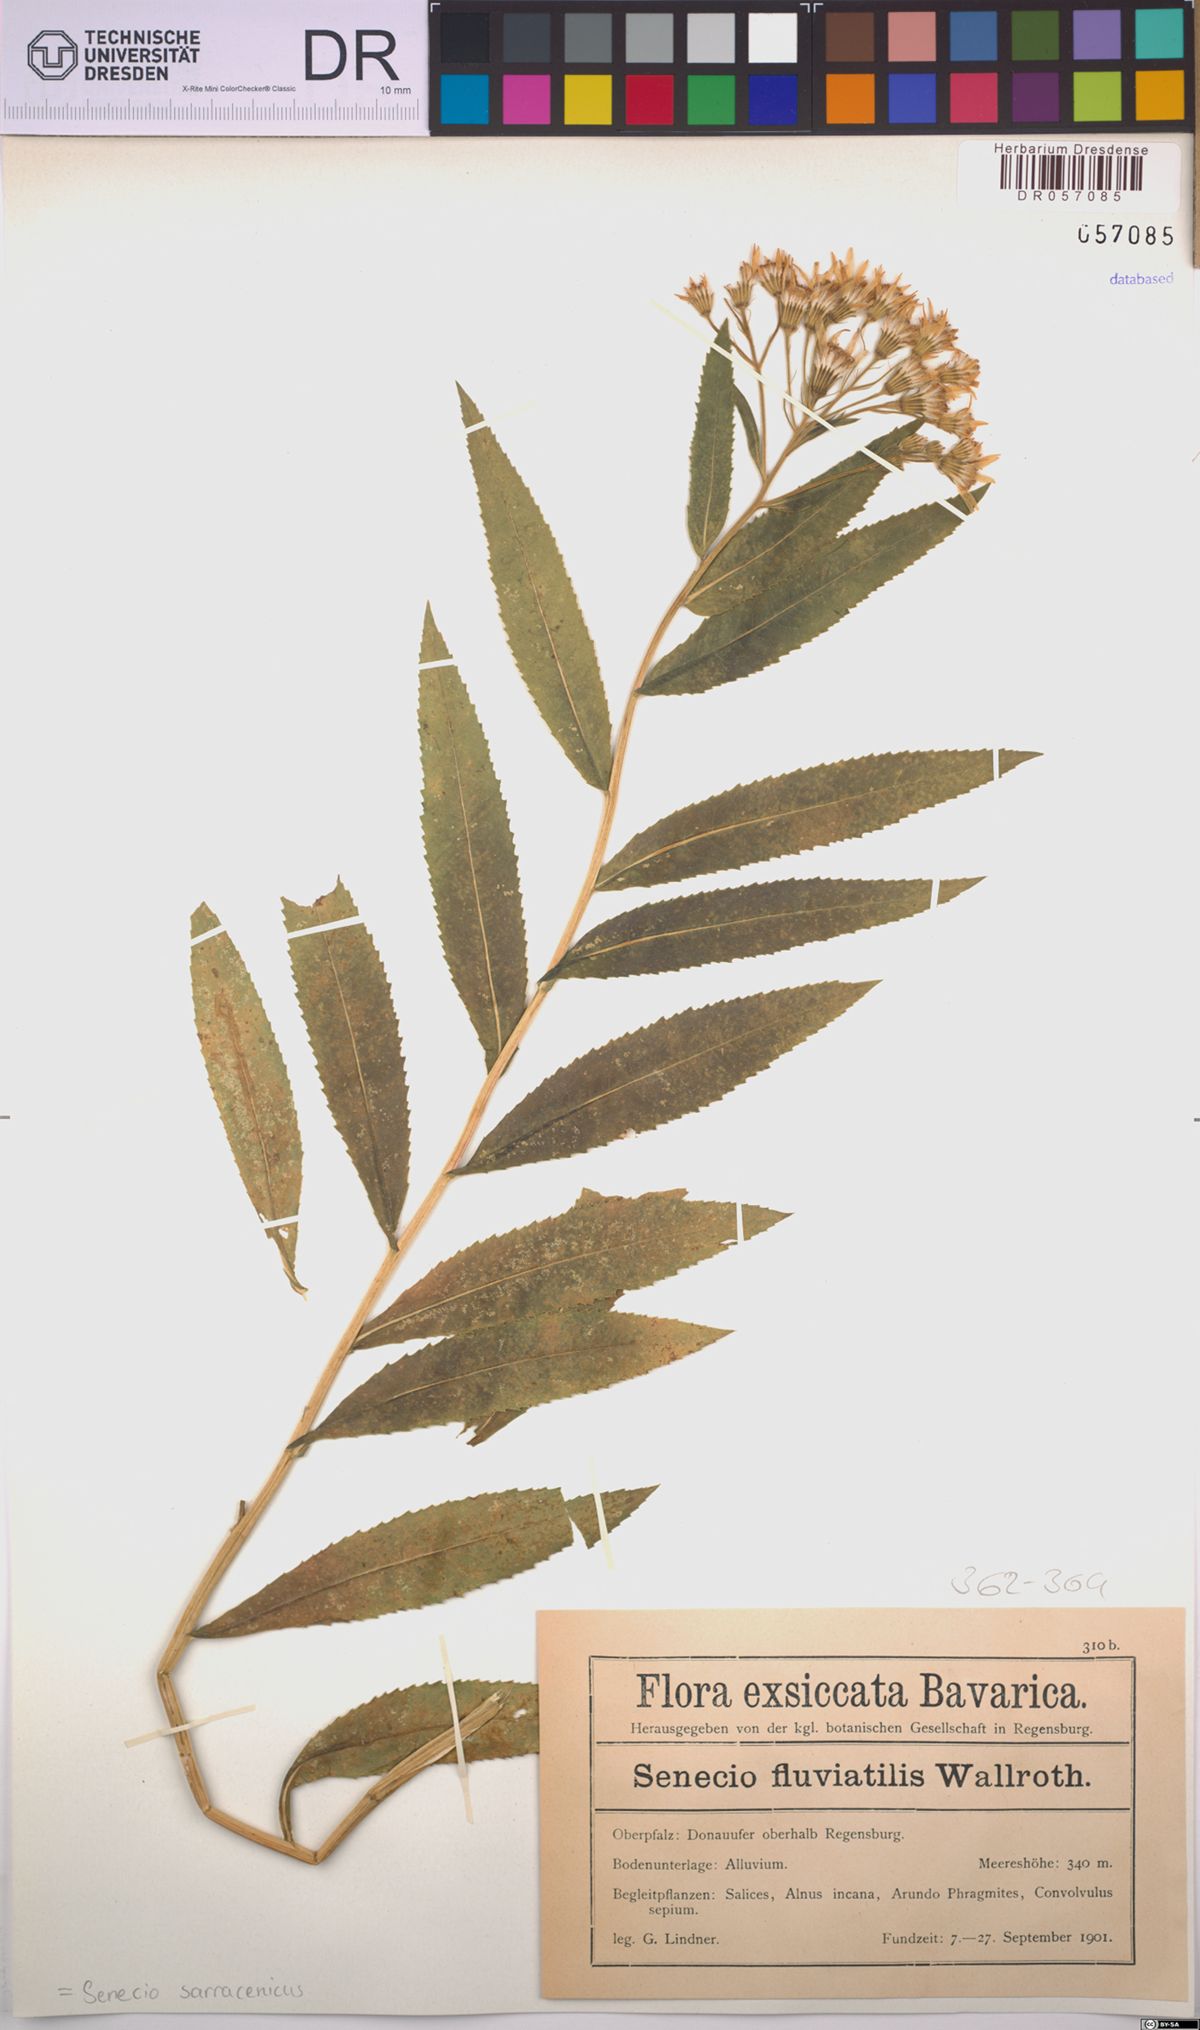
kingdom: Plantae
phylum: Tracheophyta
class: Magnoliopsida
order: Asterales
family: Asteraceae
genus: Senecio
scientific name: Senecio sarracenicus
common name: Broad-leaved ragwort
